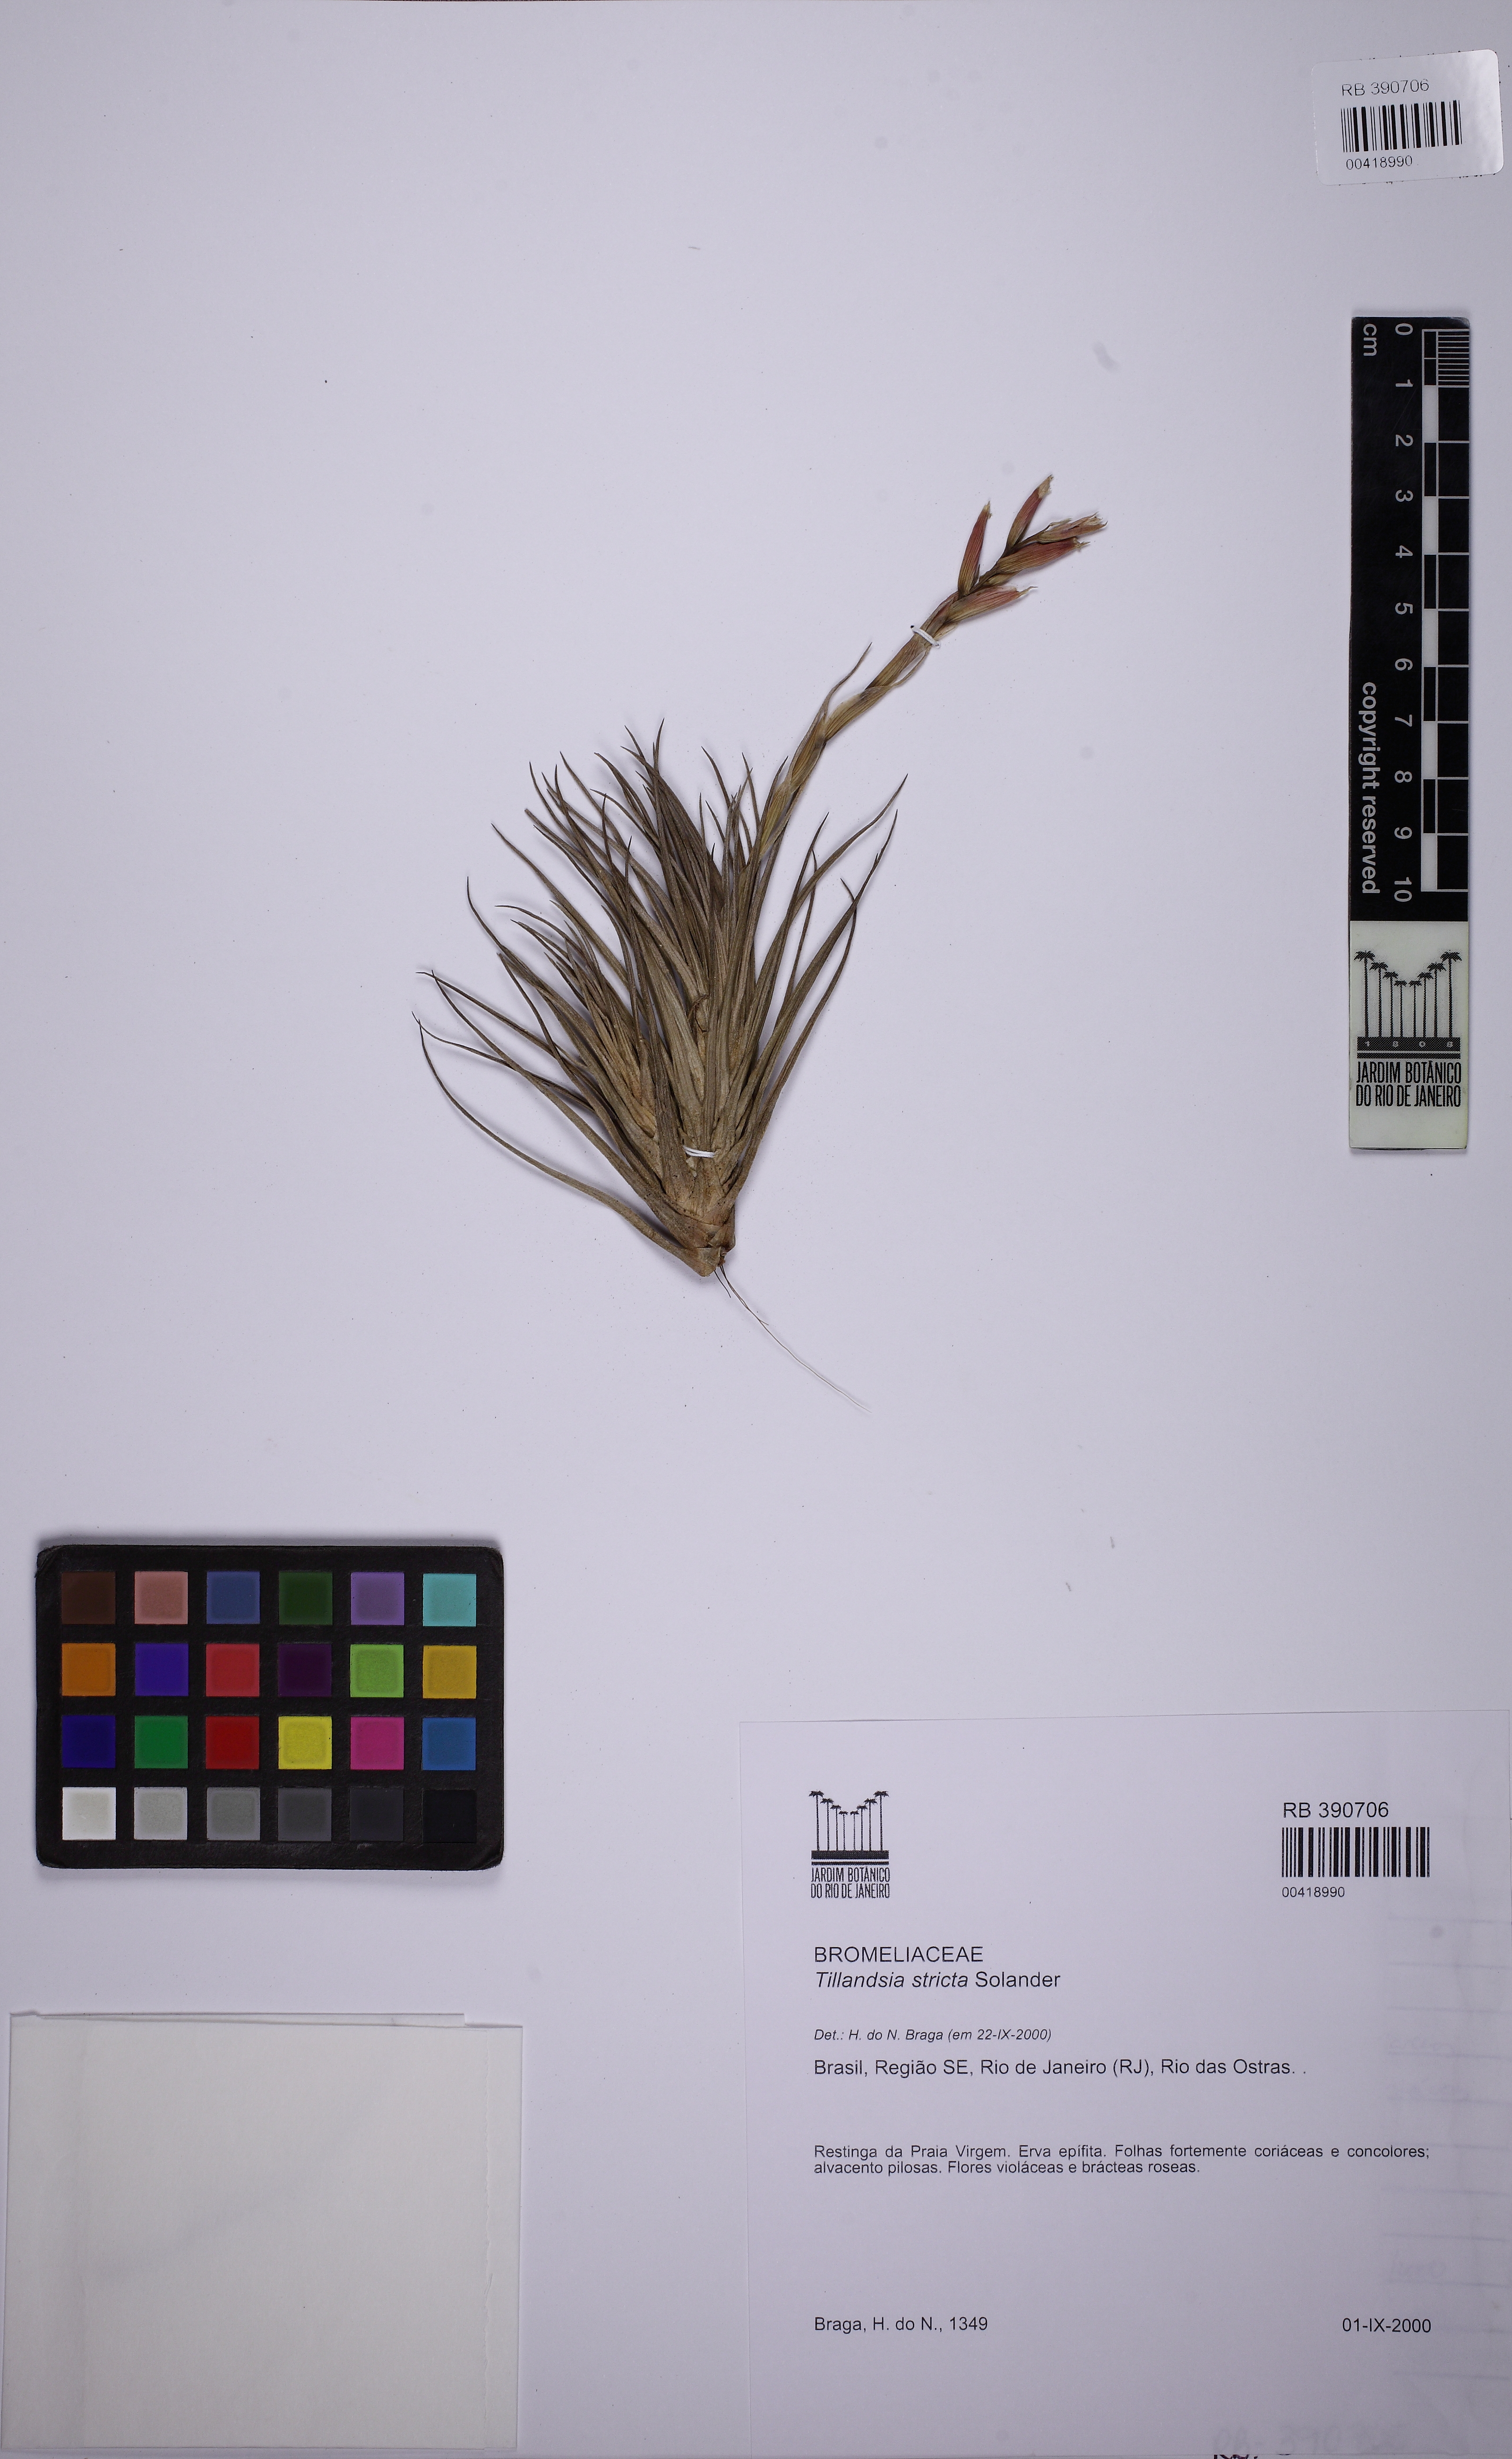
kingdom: Plantae
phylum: Tracheophyta
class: Liliopsida
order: Poales
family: Bromeliaceae
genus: Tillandsia
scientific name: Tillandsia stricta
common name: Airplant
